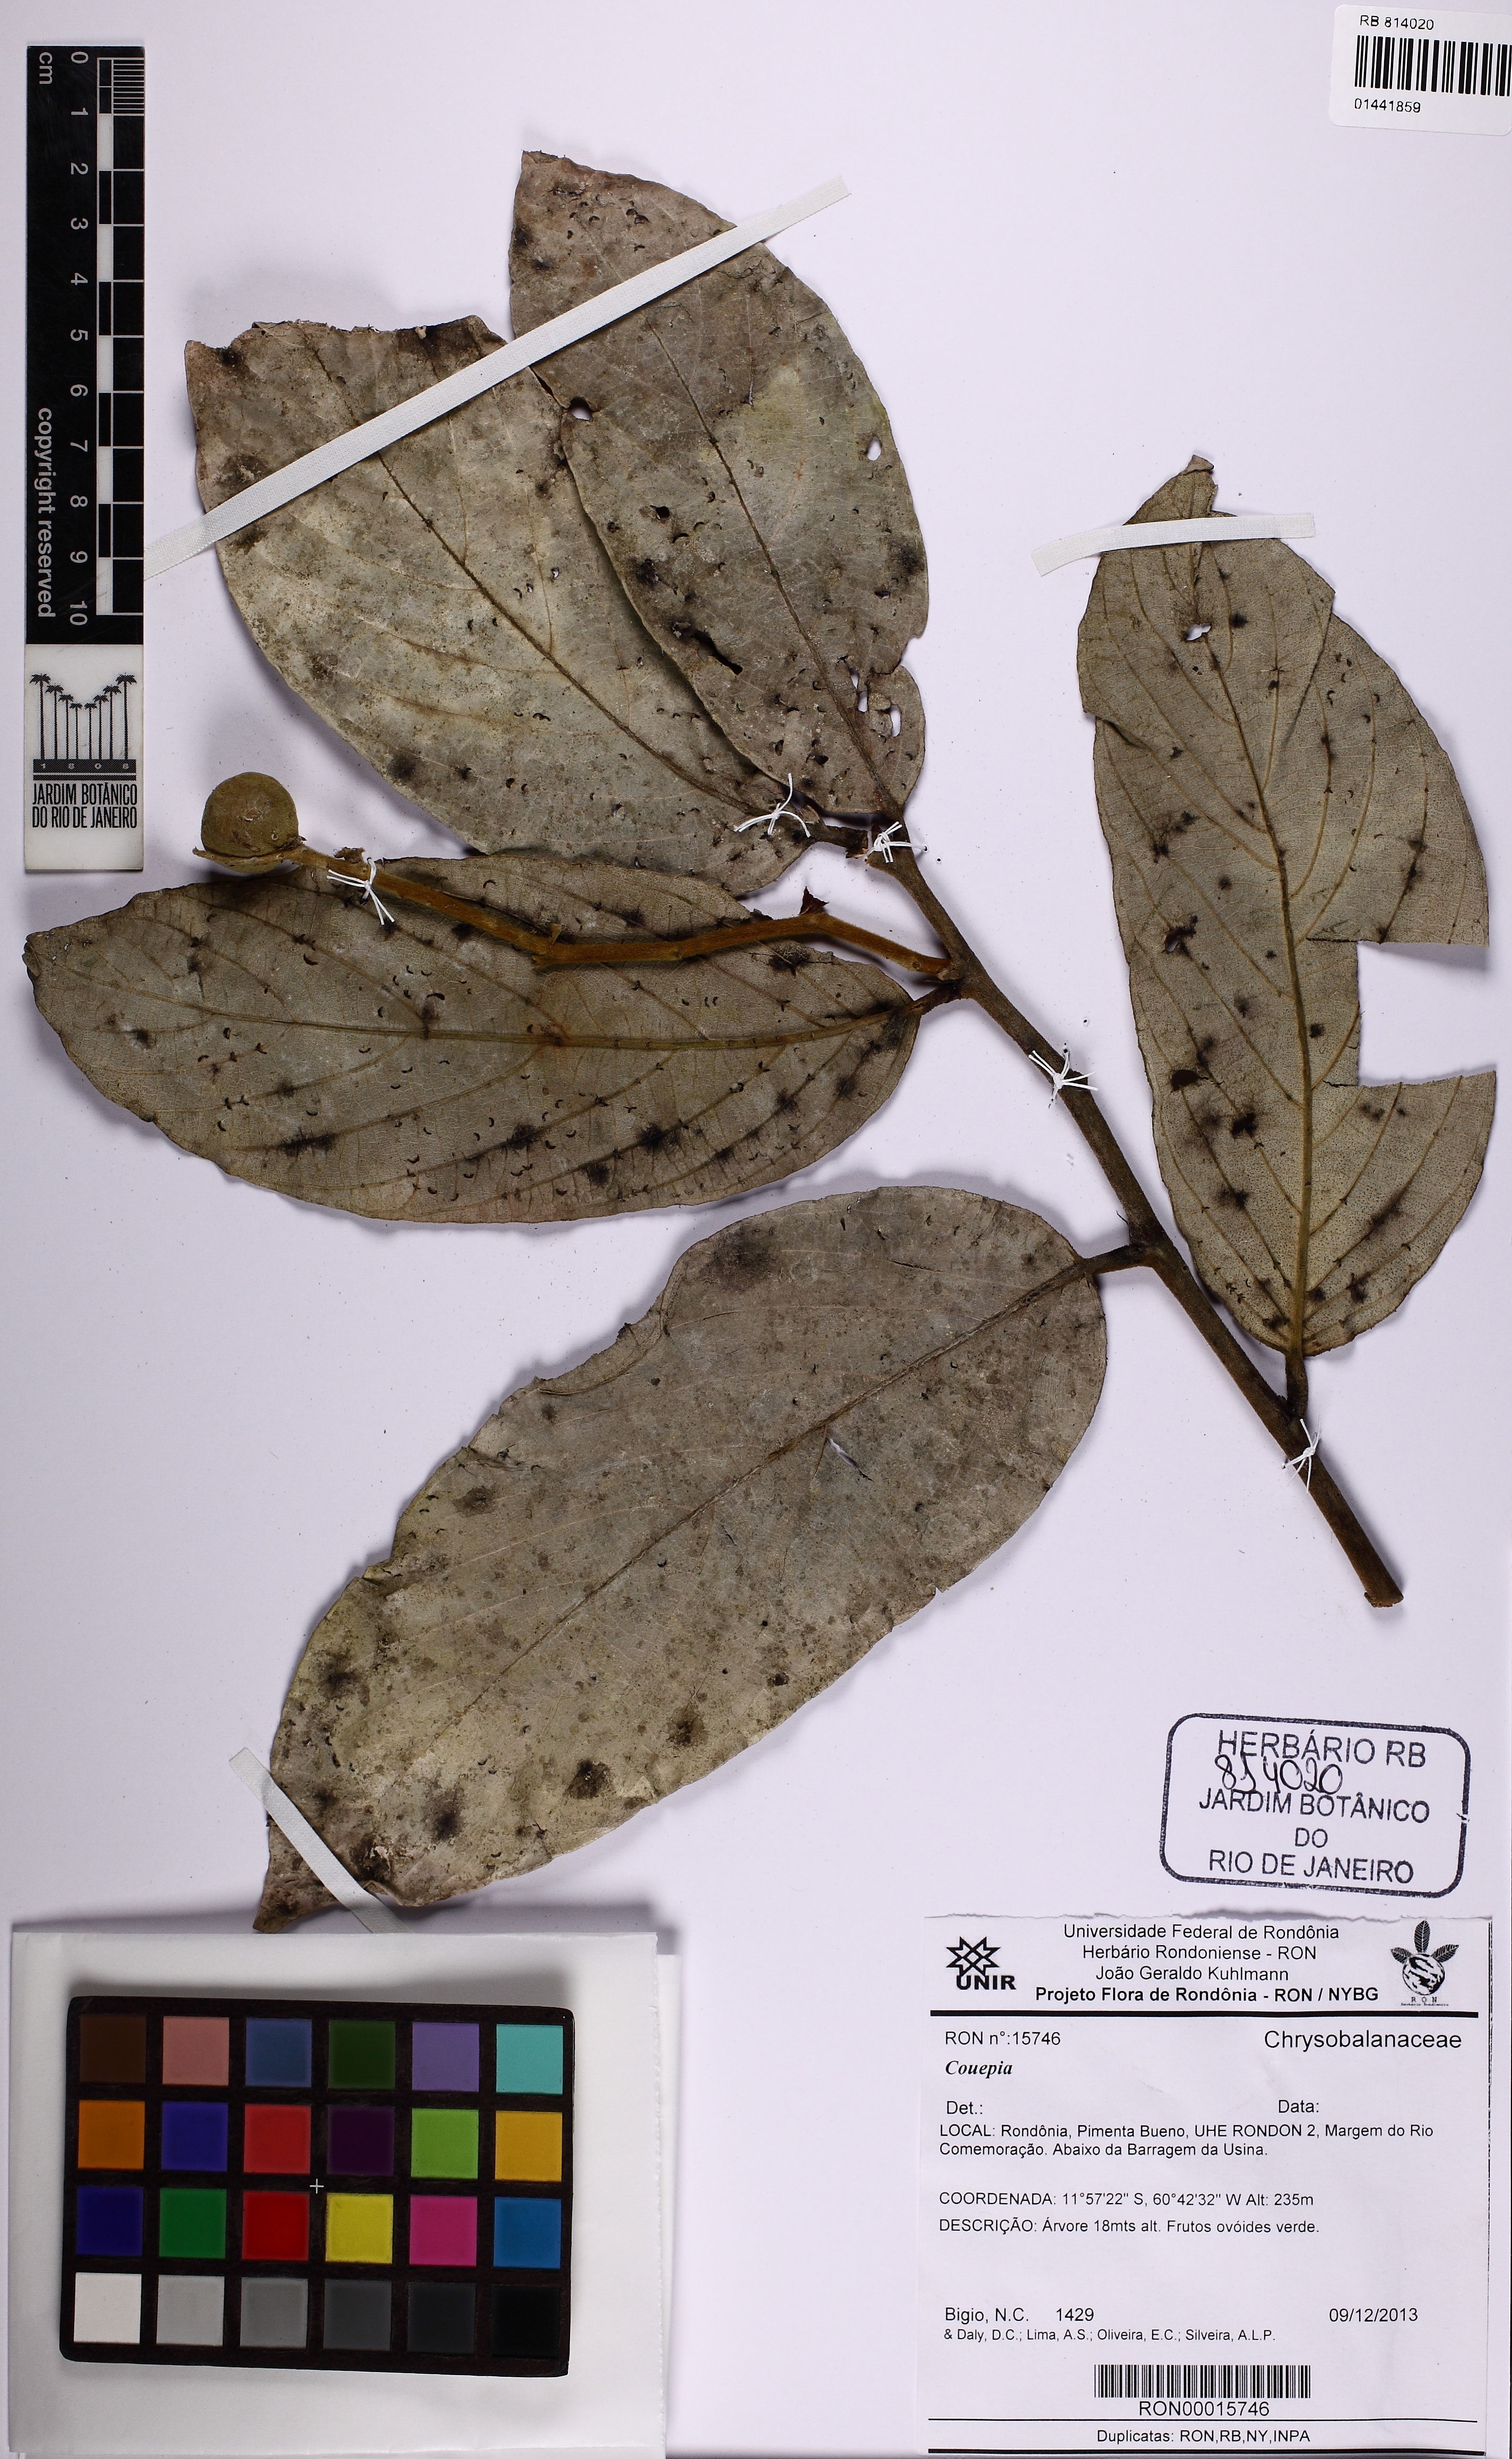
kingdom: Plantae
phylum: Tracheophyta
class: Magnoliopsida
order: Malpighiales
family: Chrysobalanaceae
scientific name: Chrysobalanaceae
